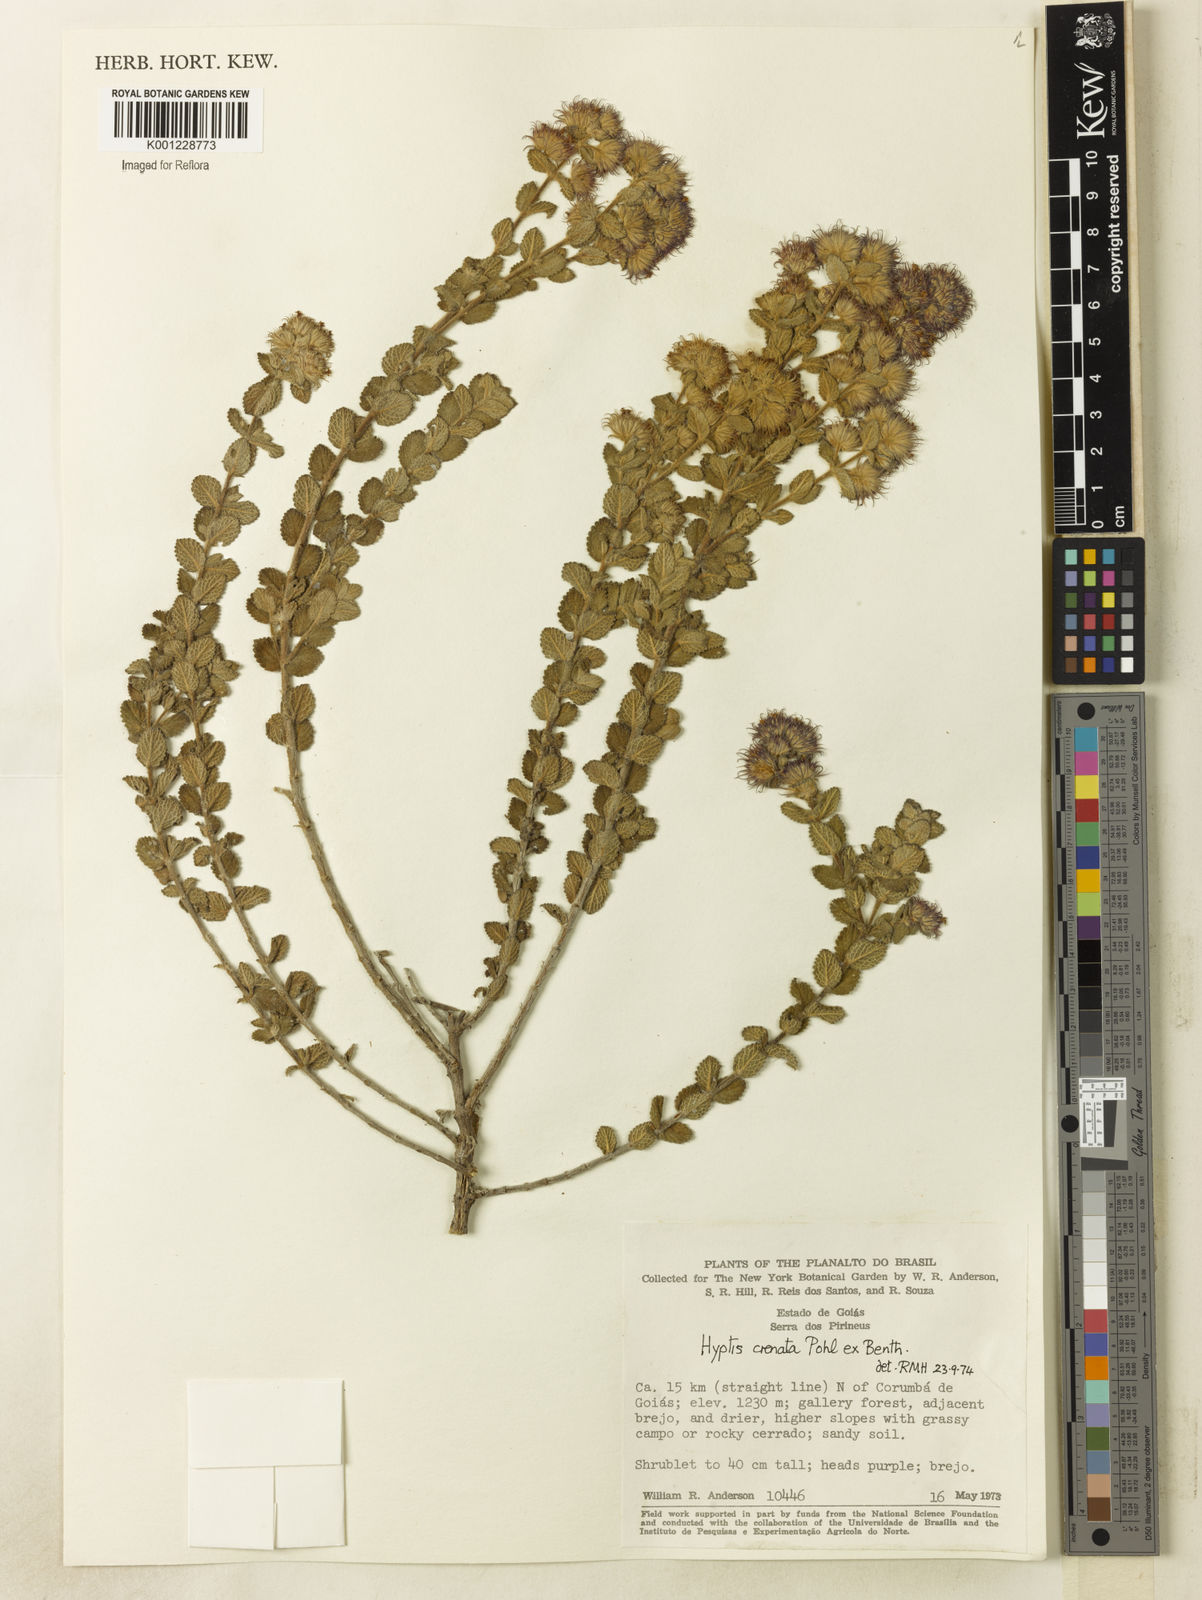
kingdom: Plantae
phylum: Tracheophyta
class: Magnoliopsida
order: Lamiales
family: Lamiaceae
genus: Hyptis
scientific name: Hyptis crenata
